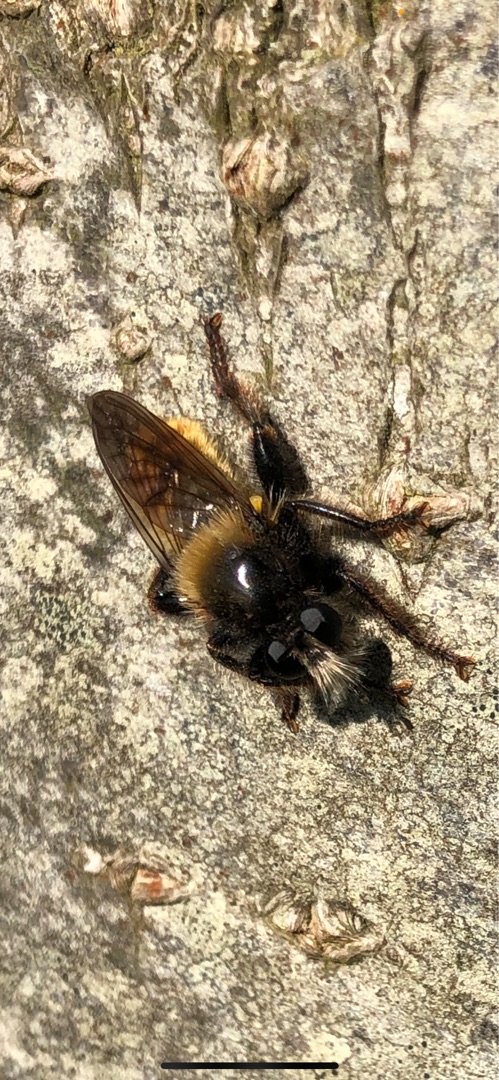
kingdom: Animalia
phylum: Arthropoda
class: Insecta
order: Diptera
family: Asilidae
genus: Laphria
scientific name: Laphria flava
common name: Gul vedrovflue
